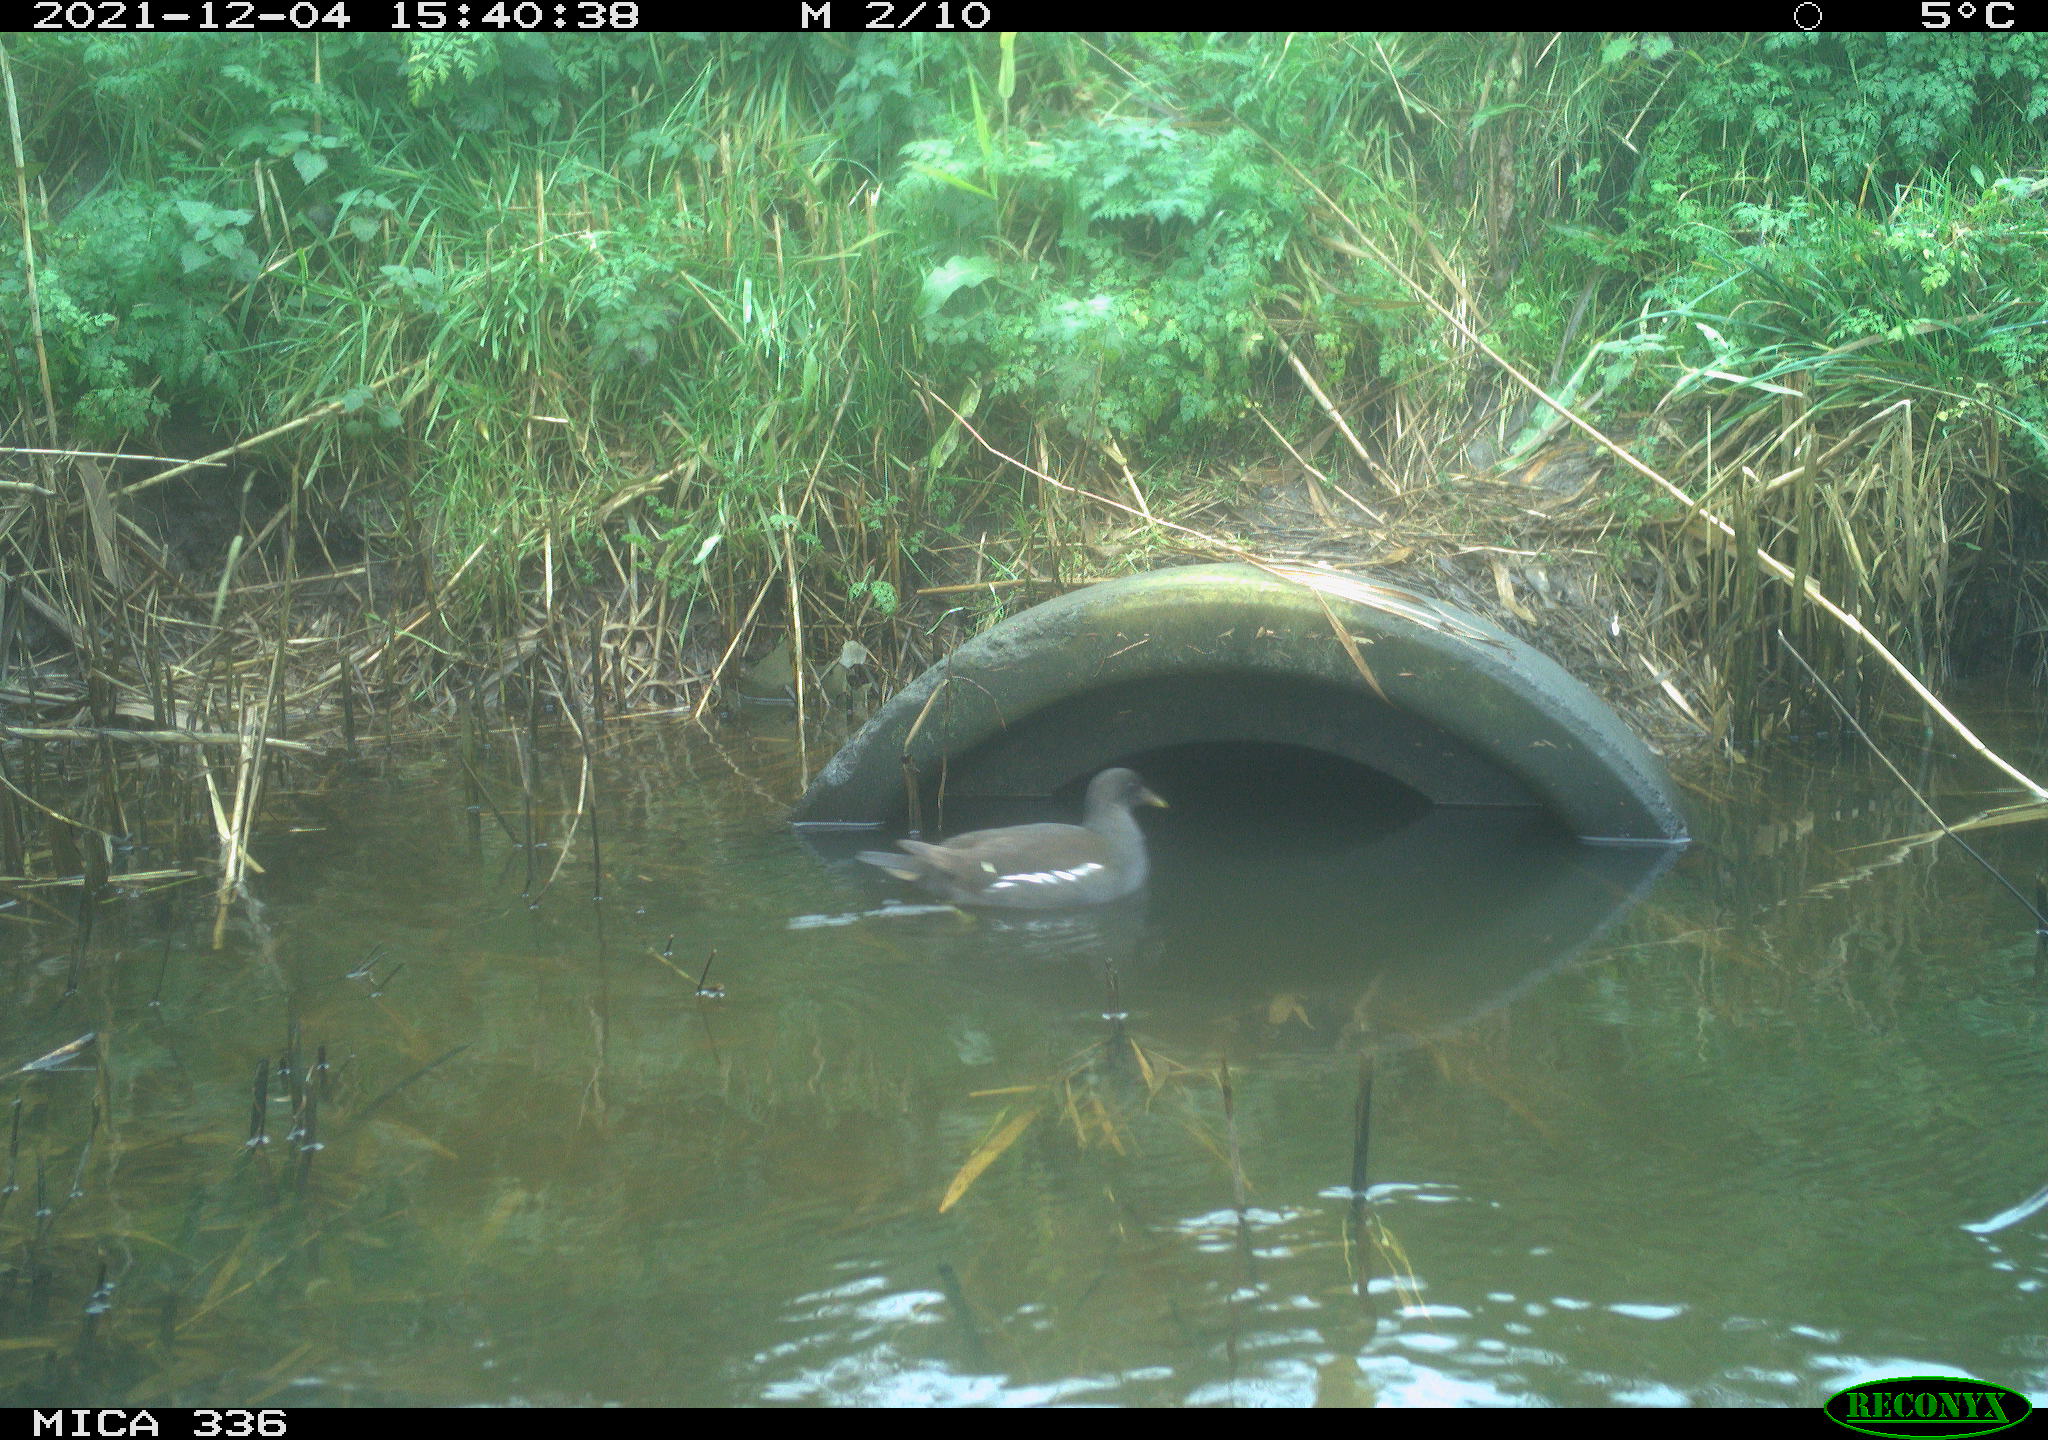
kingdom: Animalia
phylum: Chordata
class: Aves
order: Gruiformes
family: Rallidae
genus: Gallinula
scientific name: Gallinula chloropus
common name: Common moorhen
